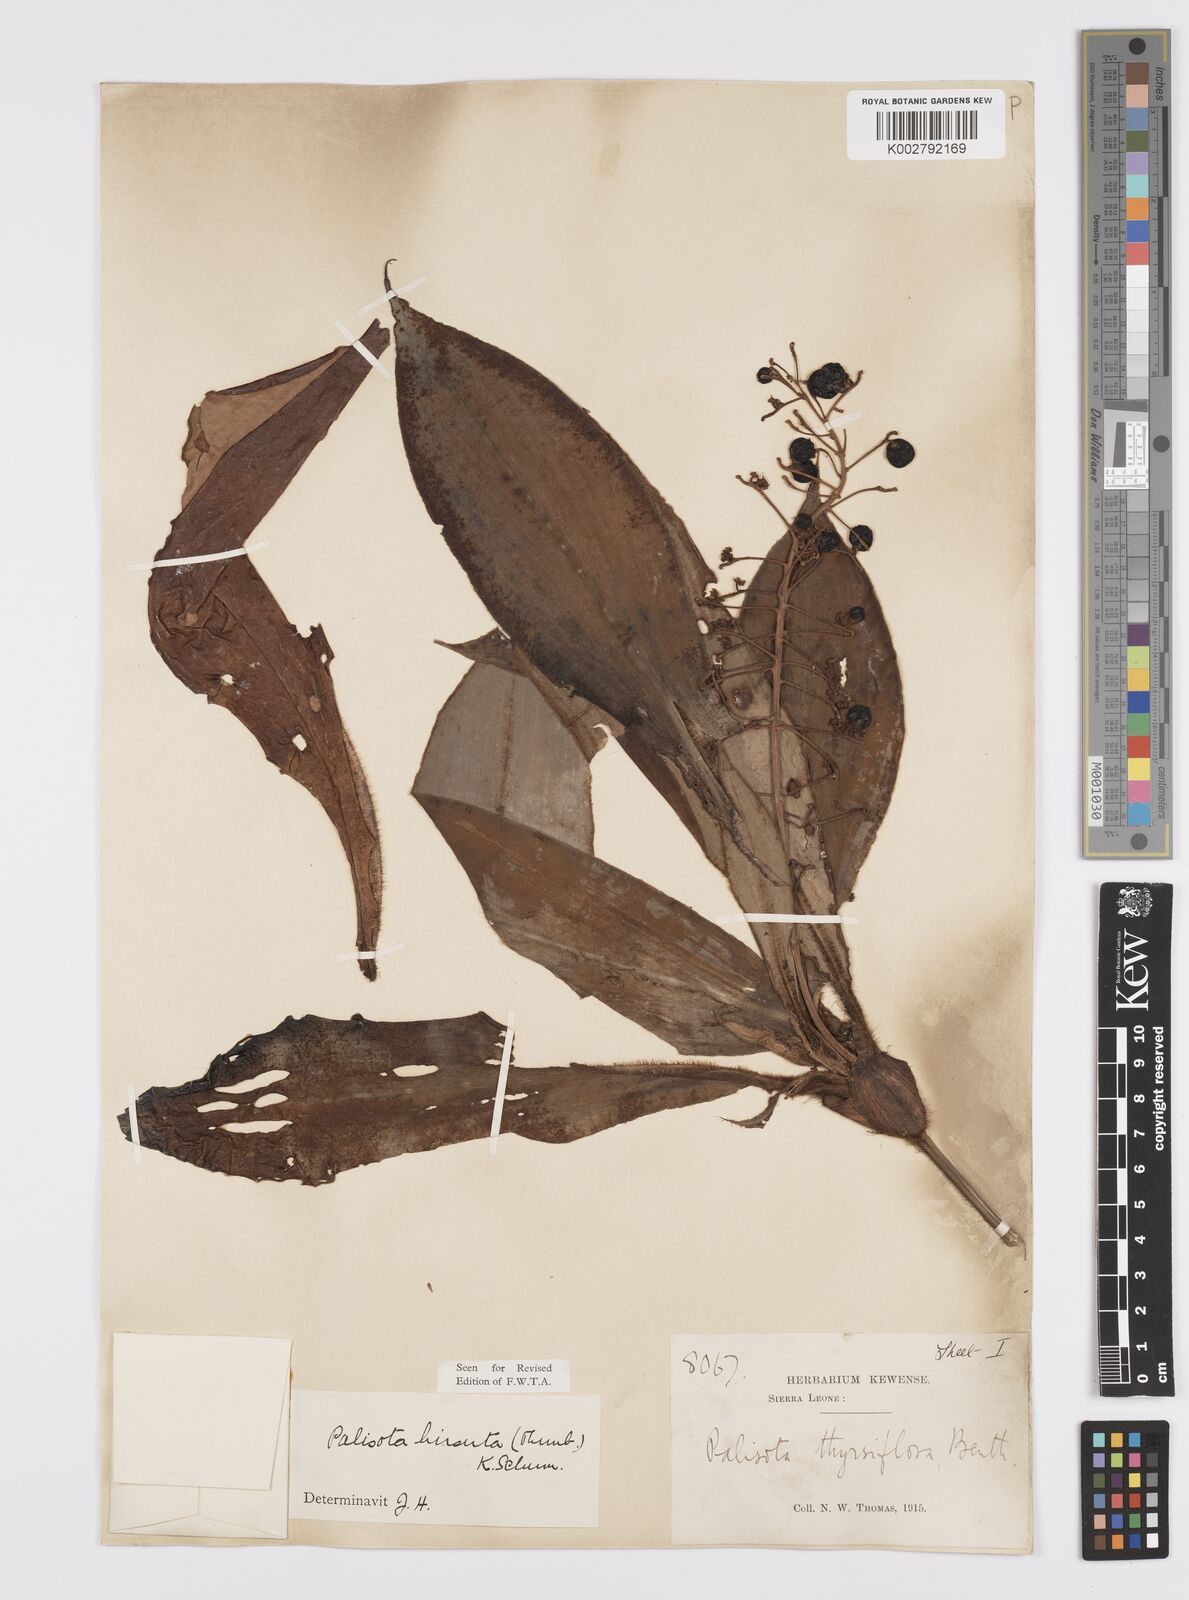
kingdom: Plantae
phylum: Tracheophyta
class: Liliopsida
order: Commelinales
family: Commelinaceae
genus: Palisota
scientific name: Palisota hirsuta
